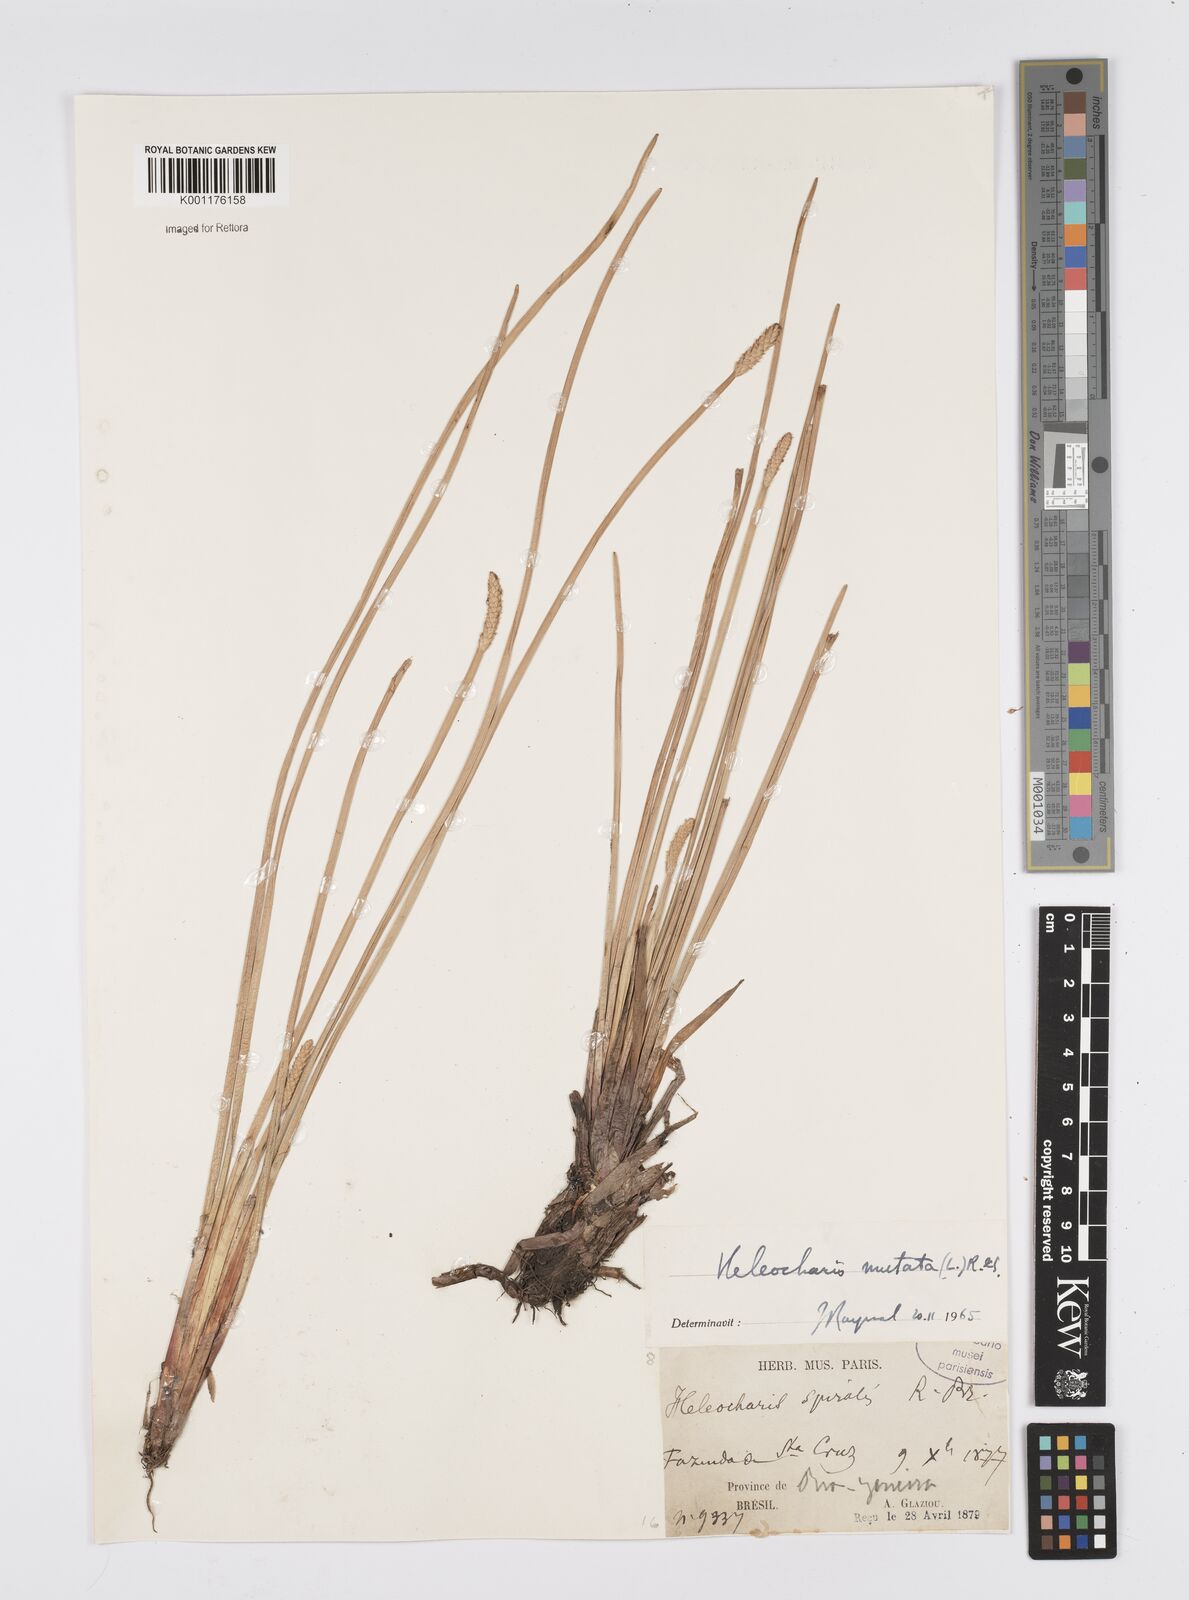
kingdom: Plantae
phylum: Tracheophyta
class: Liliopsida
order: Poales
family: Cyperaceae
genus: Eleocharis
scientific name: Eleocharis mutata
